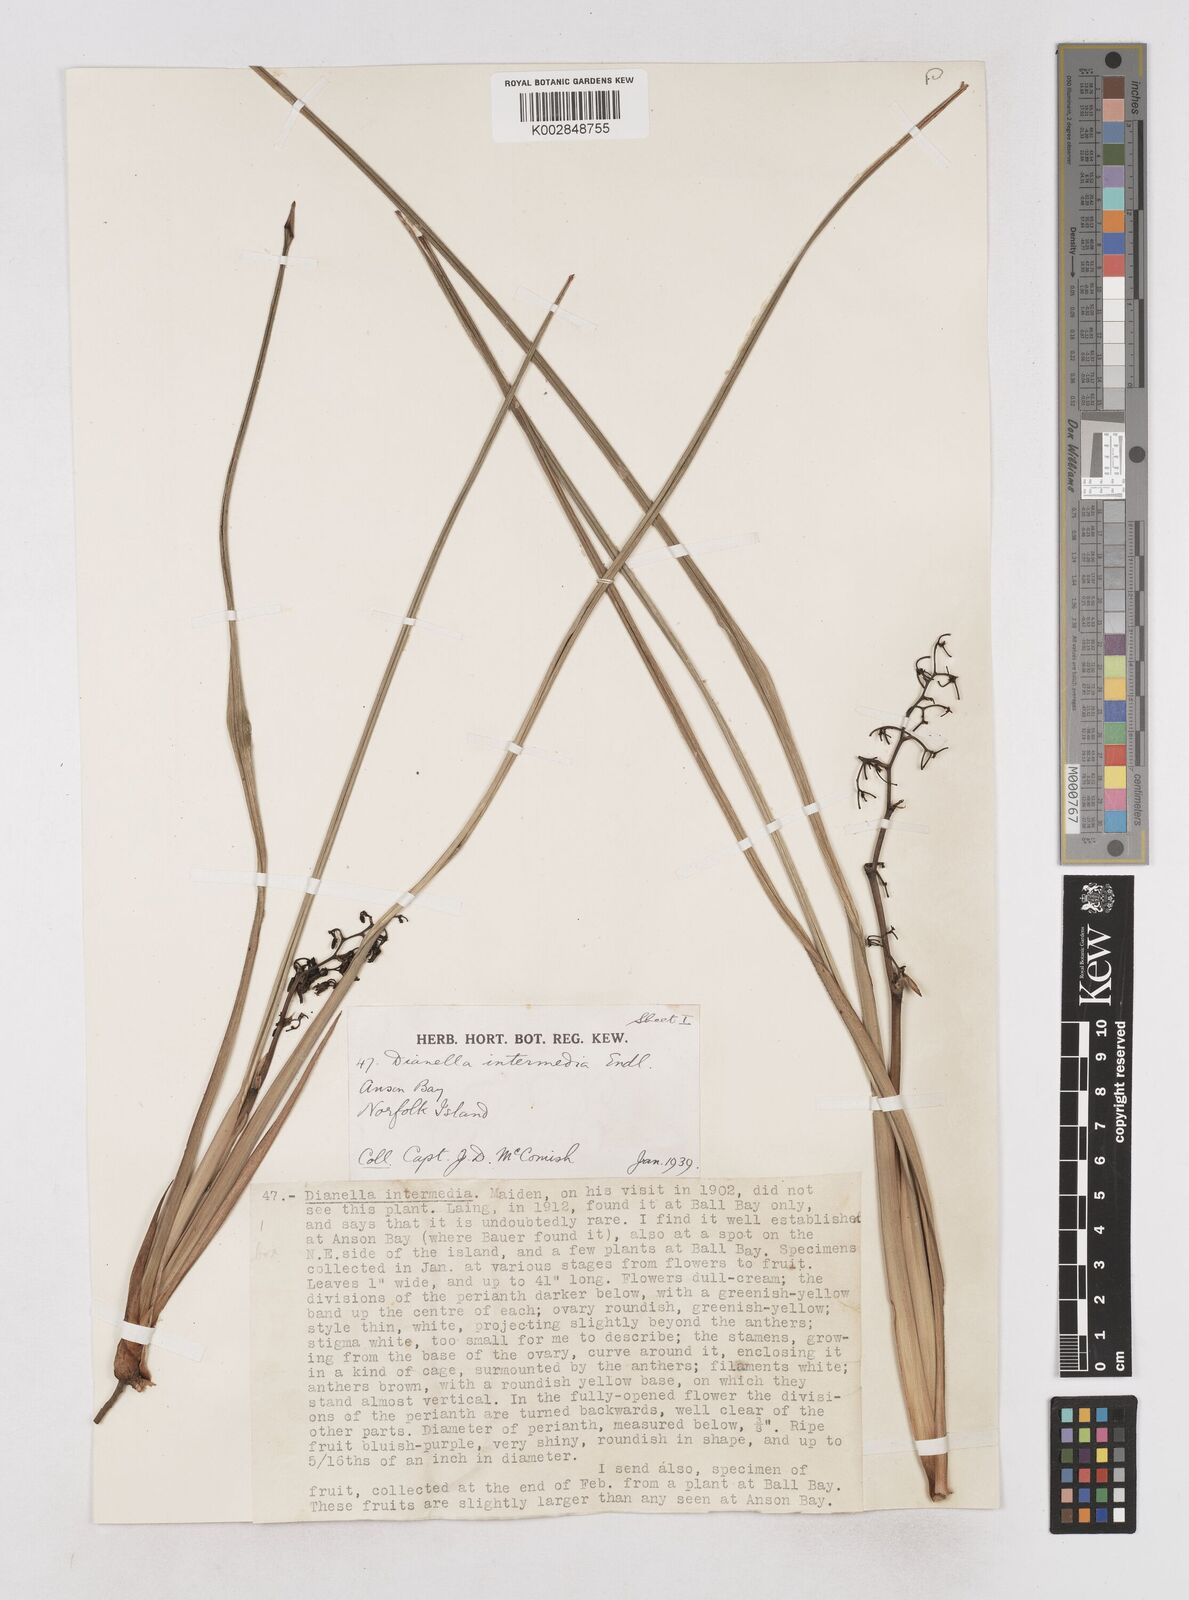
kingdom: Plantae
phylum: Tracheophyta
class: Liliopsida
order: Asparagales
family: Asphodelaceae
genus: Dianella
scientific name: Dianella intermedia
